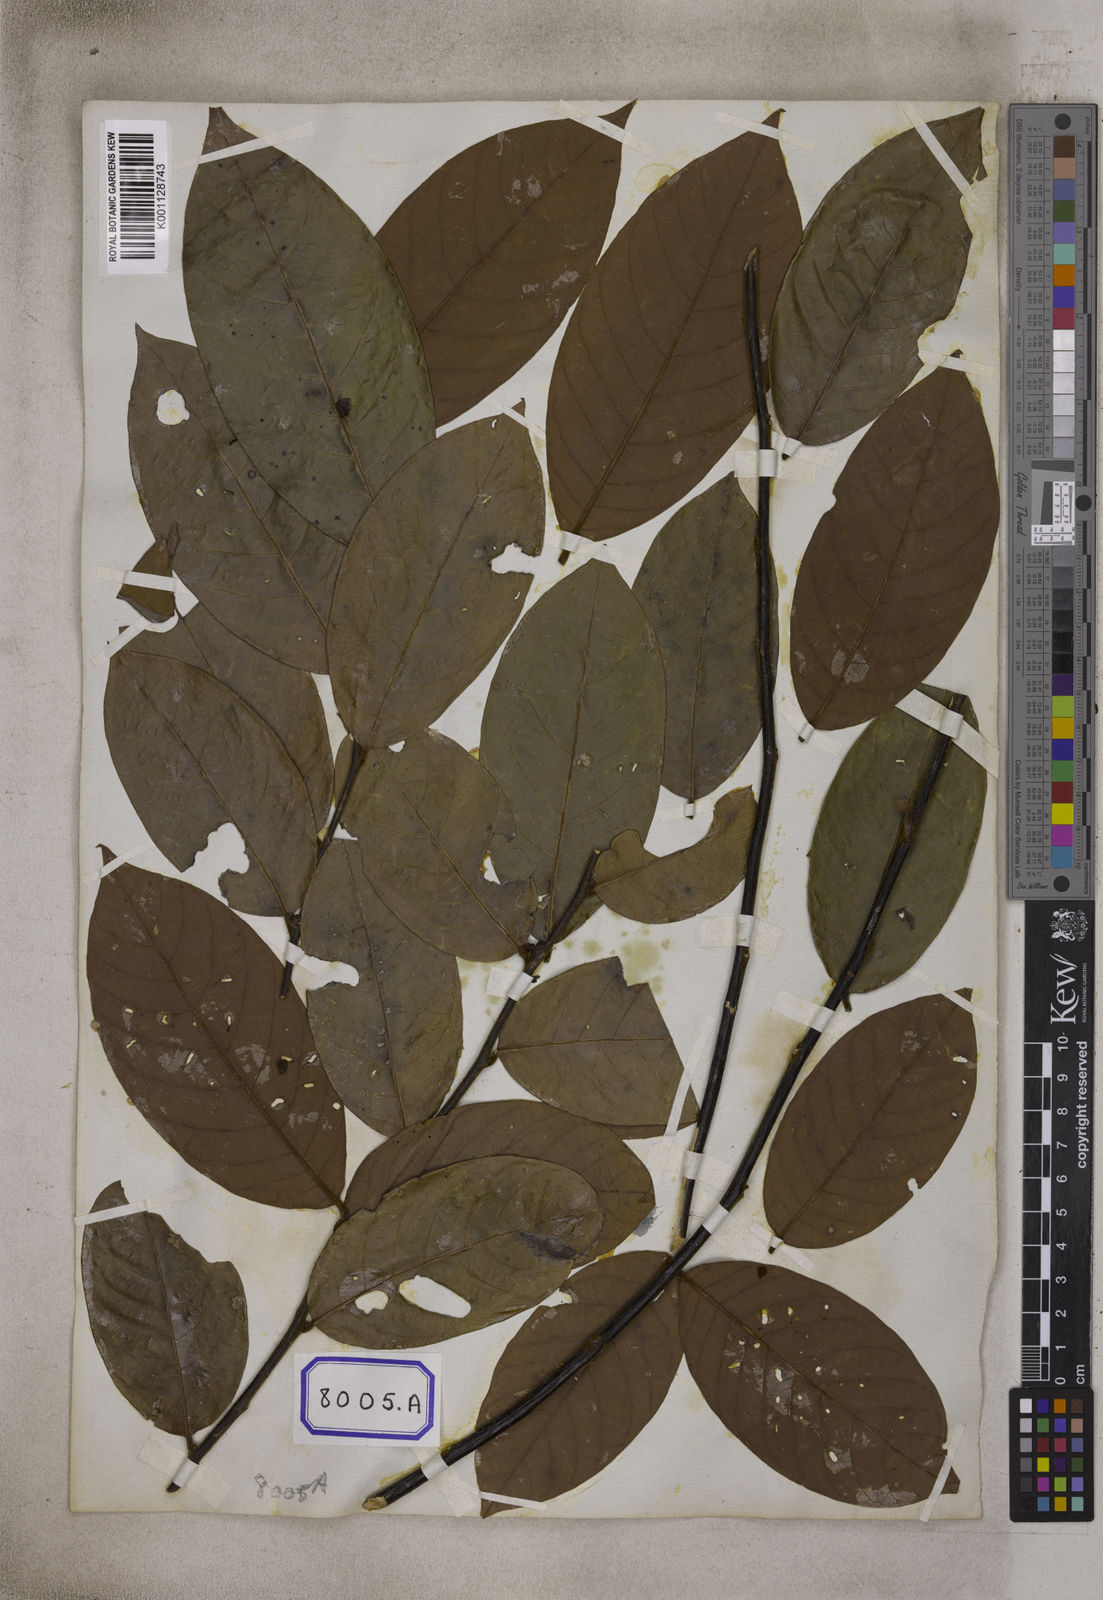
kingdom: Plantae
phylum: Tracheophyta
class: Magnoliopsida
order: Malpighiales
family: Euphorbiaceae
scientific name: Euphorbiaceae
